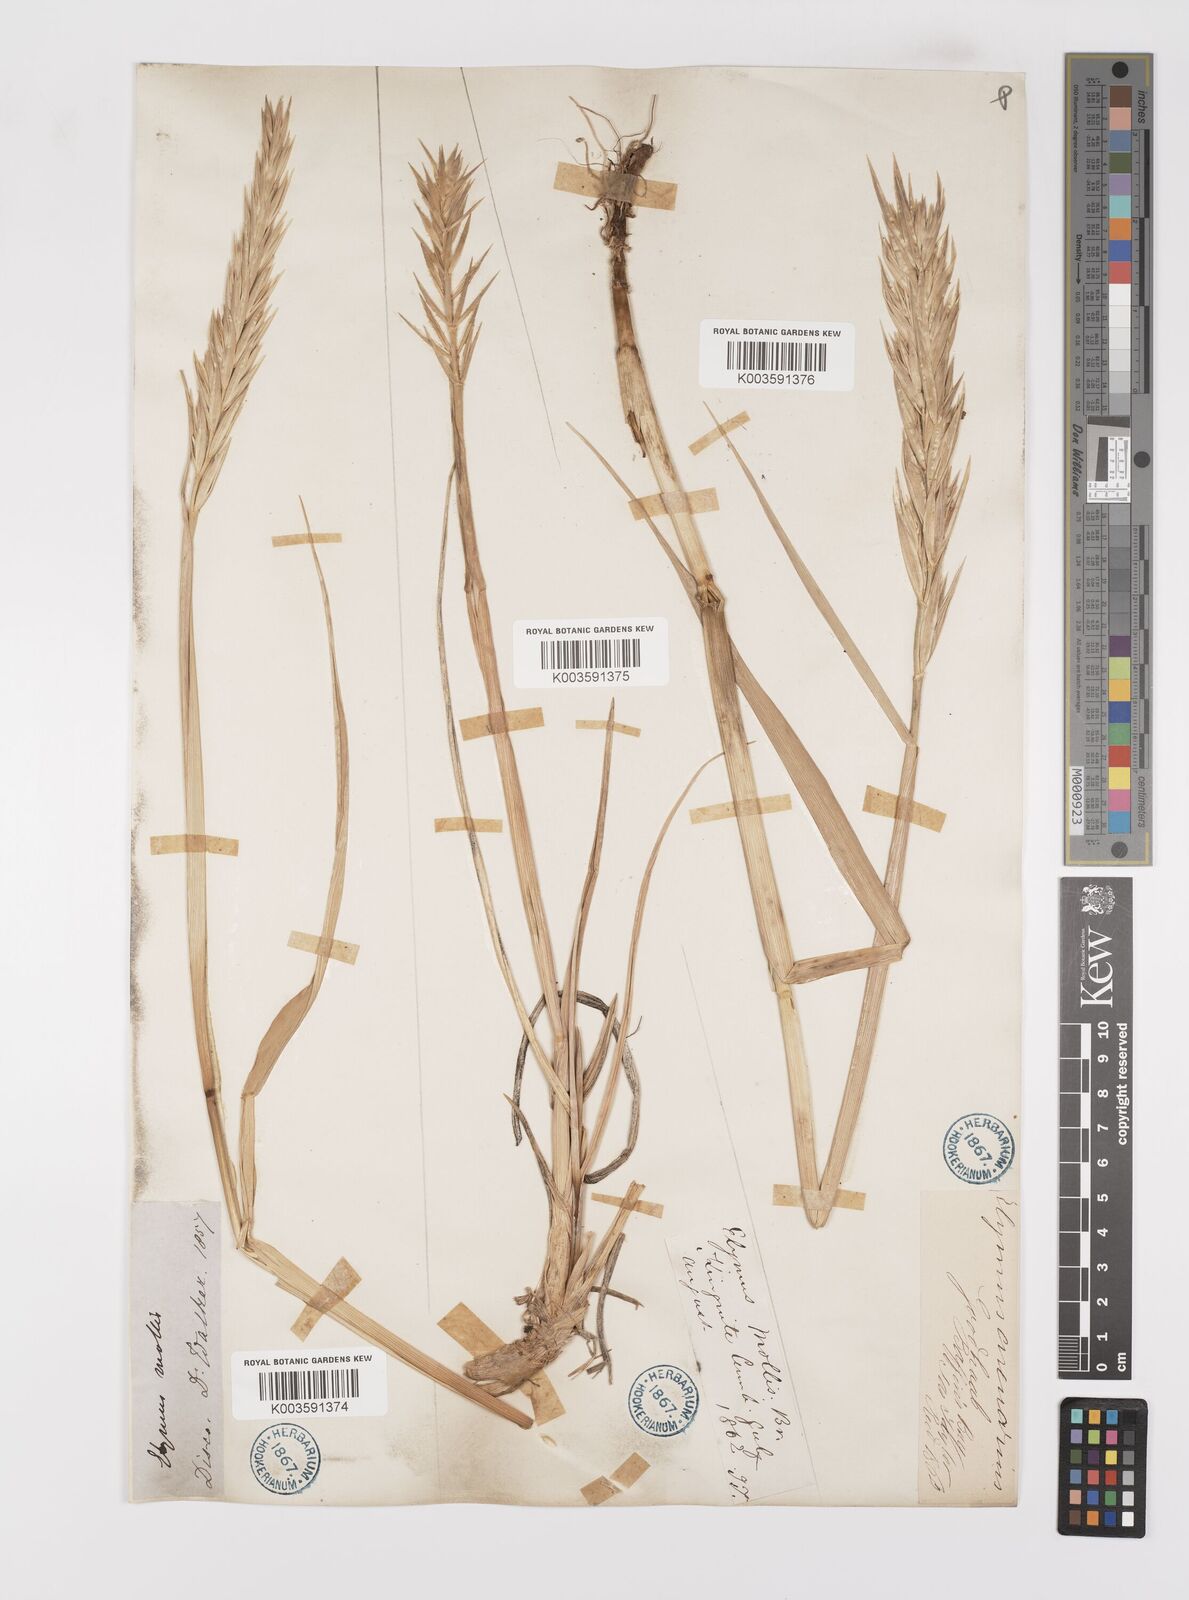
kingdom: Plantae
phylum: Tracheophyta
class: Liliopsida
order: Poales
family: Poaceae
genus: Leymus
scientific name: Leymus mollis
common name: American dune grass
